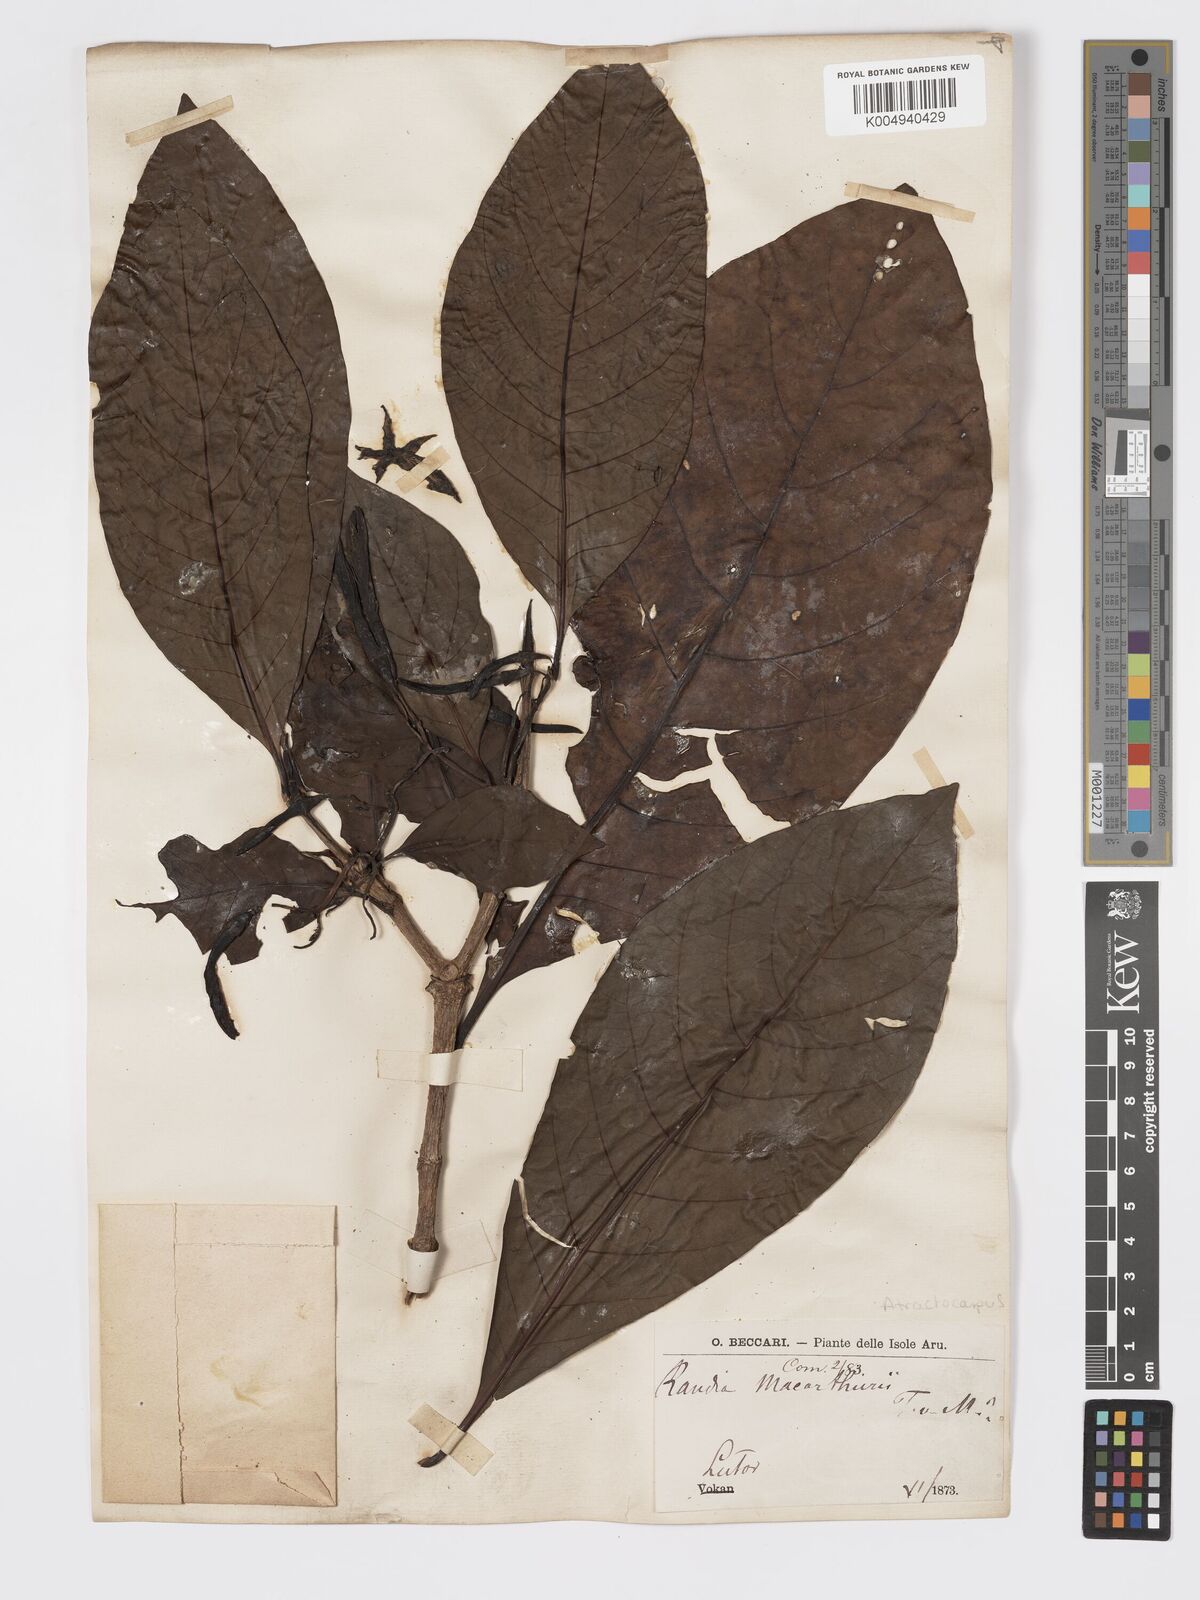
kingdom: Plantae
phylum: Tracheophyta
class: Magnoliopsida
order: Gentianales
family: Rubiaceae
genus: Atractocarpus
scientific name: Atractocarpus macarthurii
